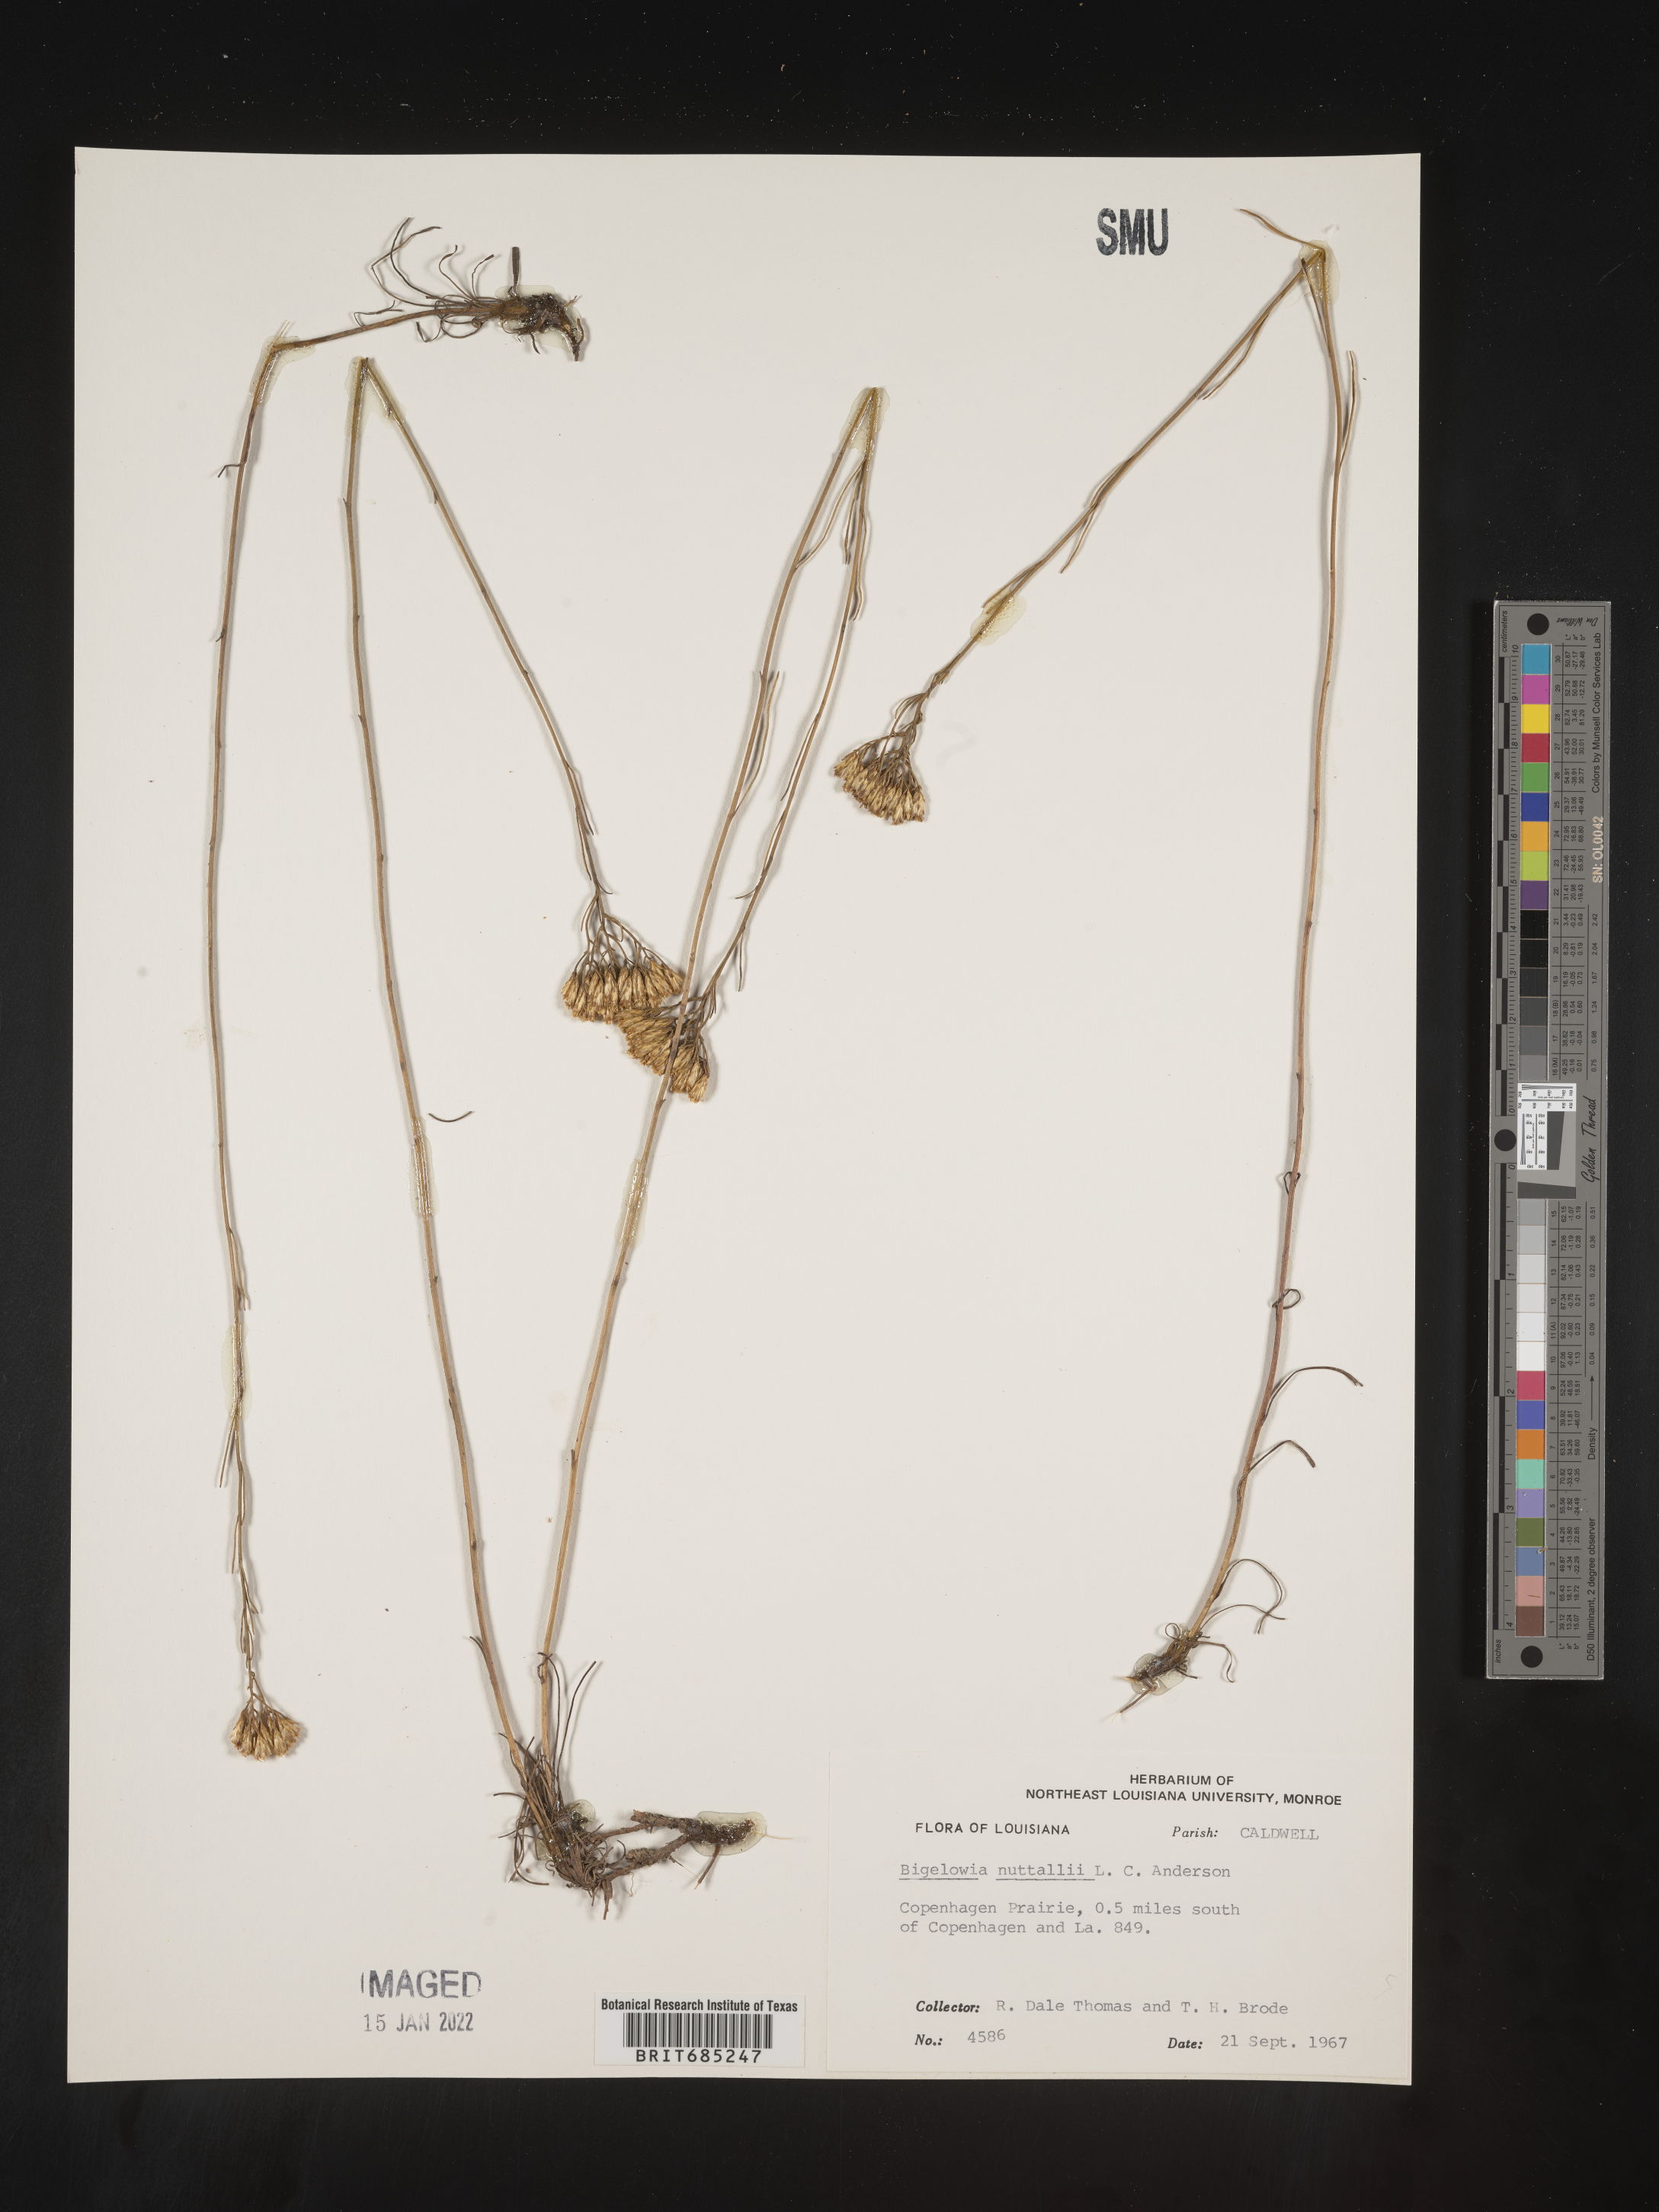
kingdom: Plantae
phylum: Tracheophyta
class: Magnoliopsida
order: Asterales
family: Asteraceae
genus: Bigelowia
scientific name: Bigelowia nuttallii
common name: Nuttall's rayless-goldenrod
